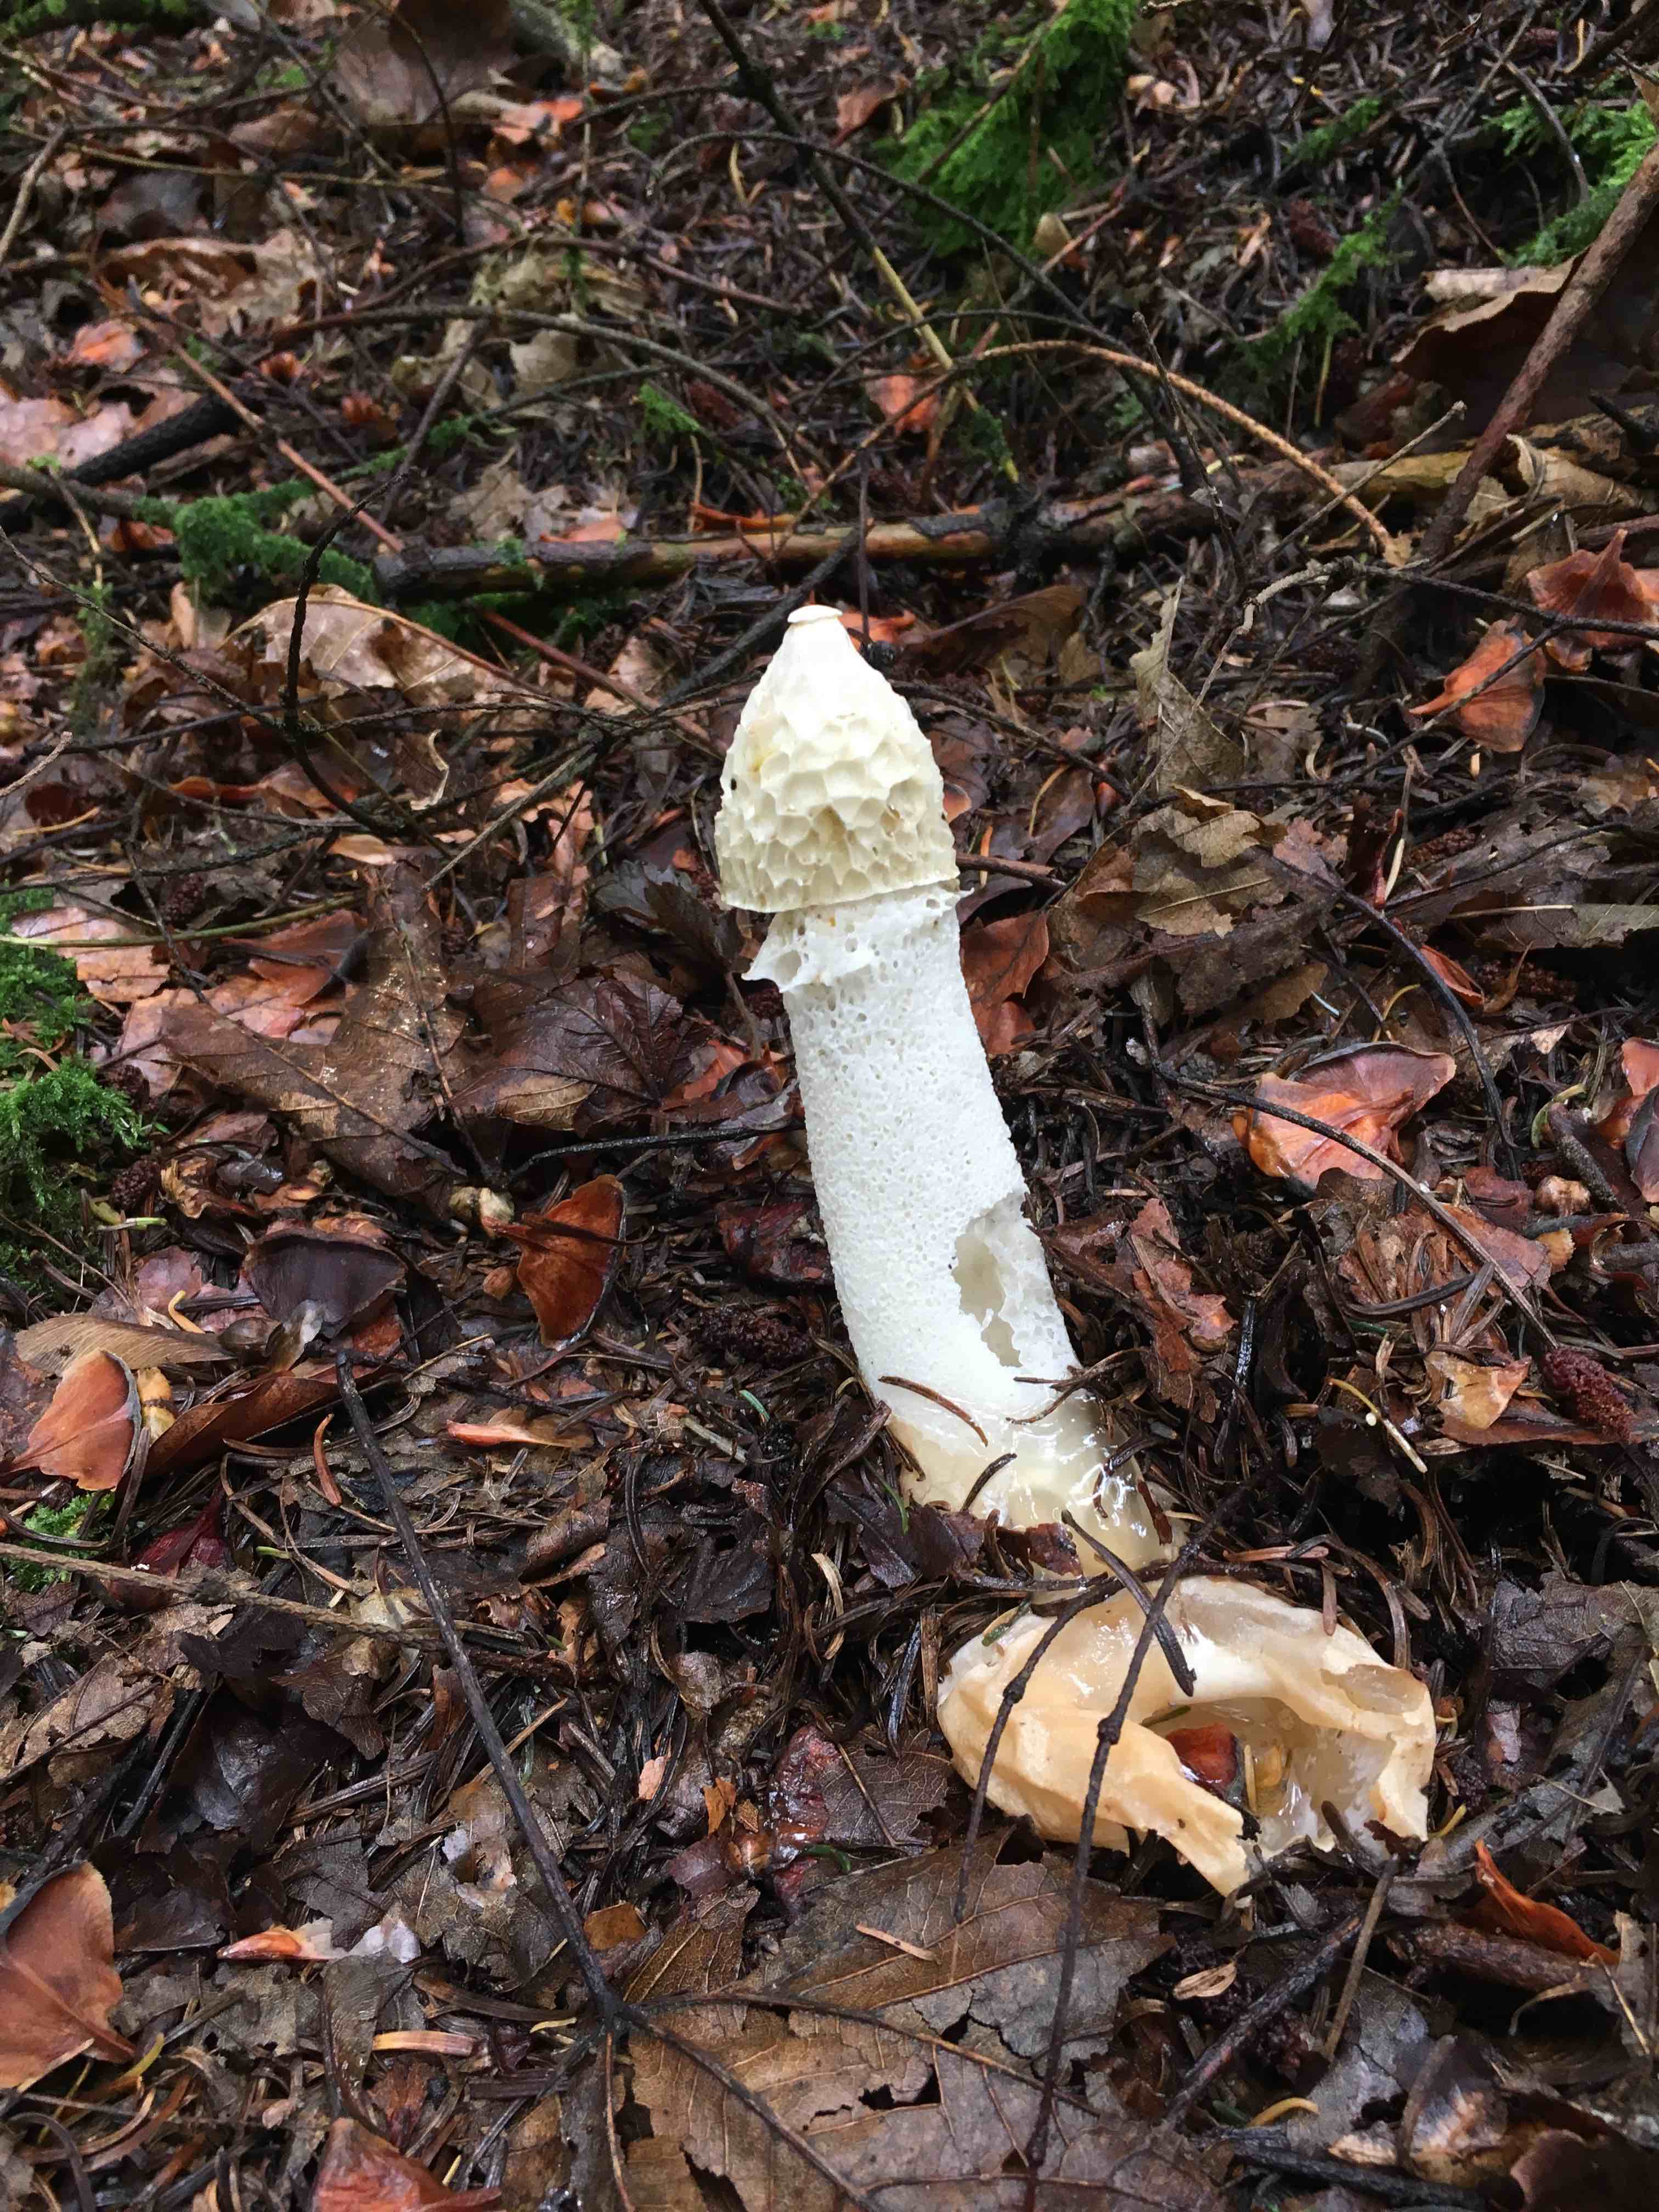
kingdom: Fungi
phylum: Basidiomycota
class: Agaricomycetes
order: Phallales
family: Phallaceae
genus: Phallus
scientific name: Phallus impudicus
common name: almindelig stinksvamp
